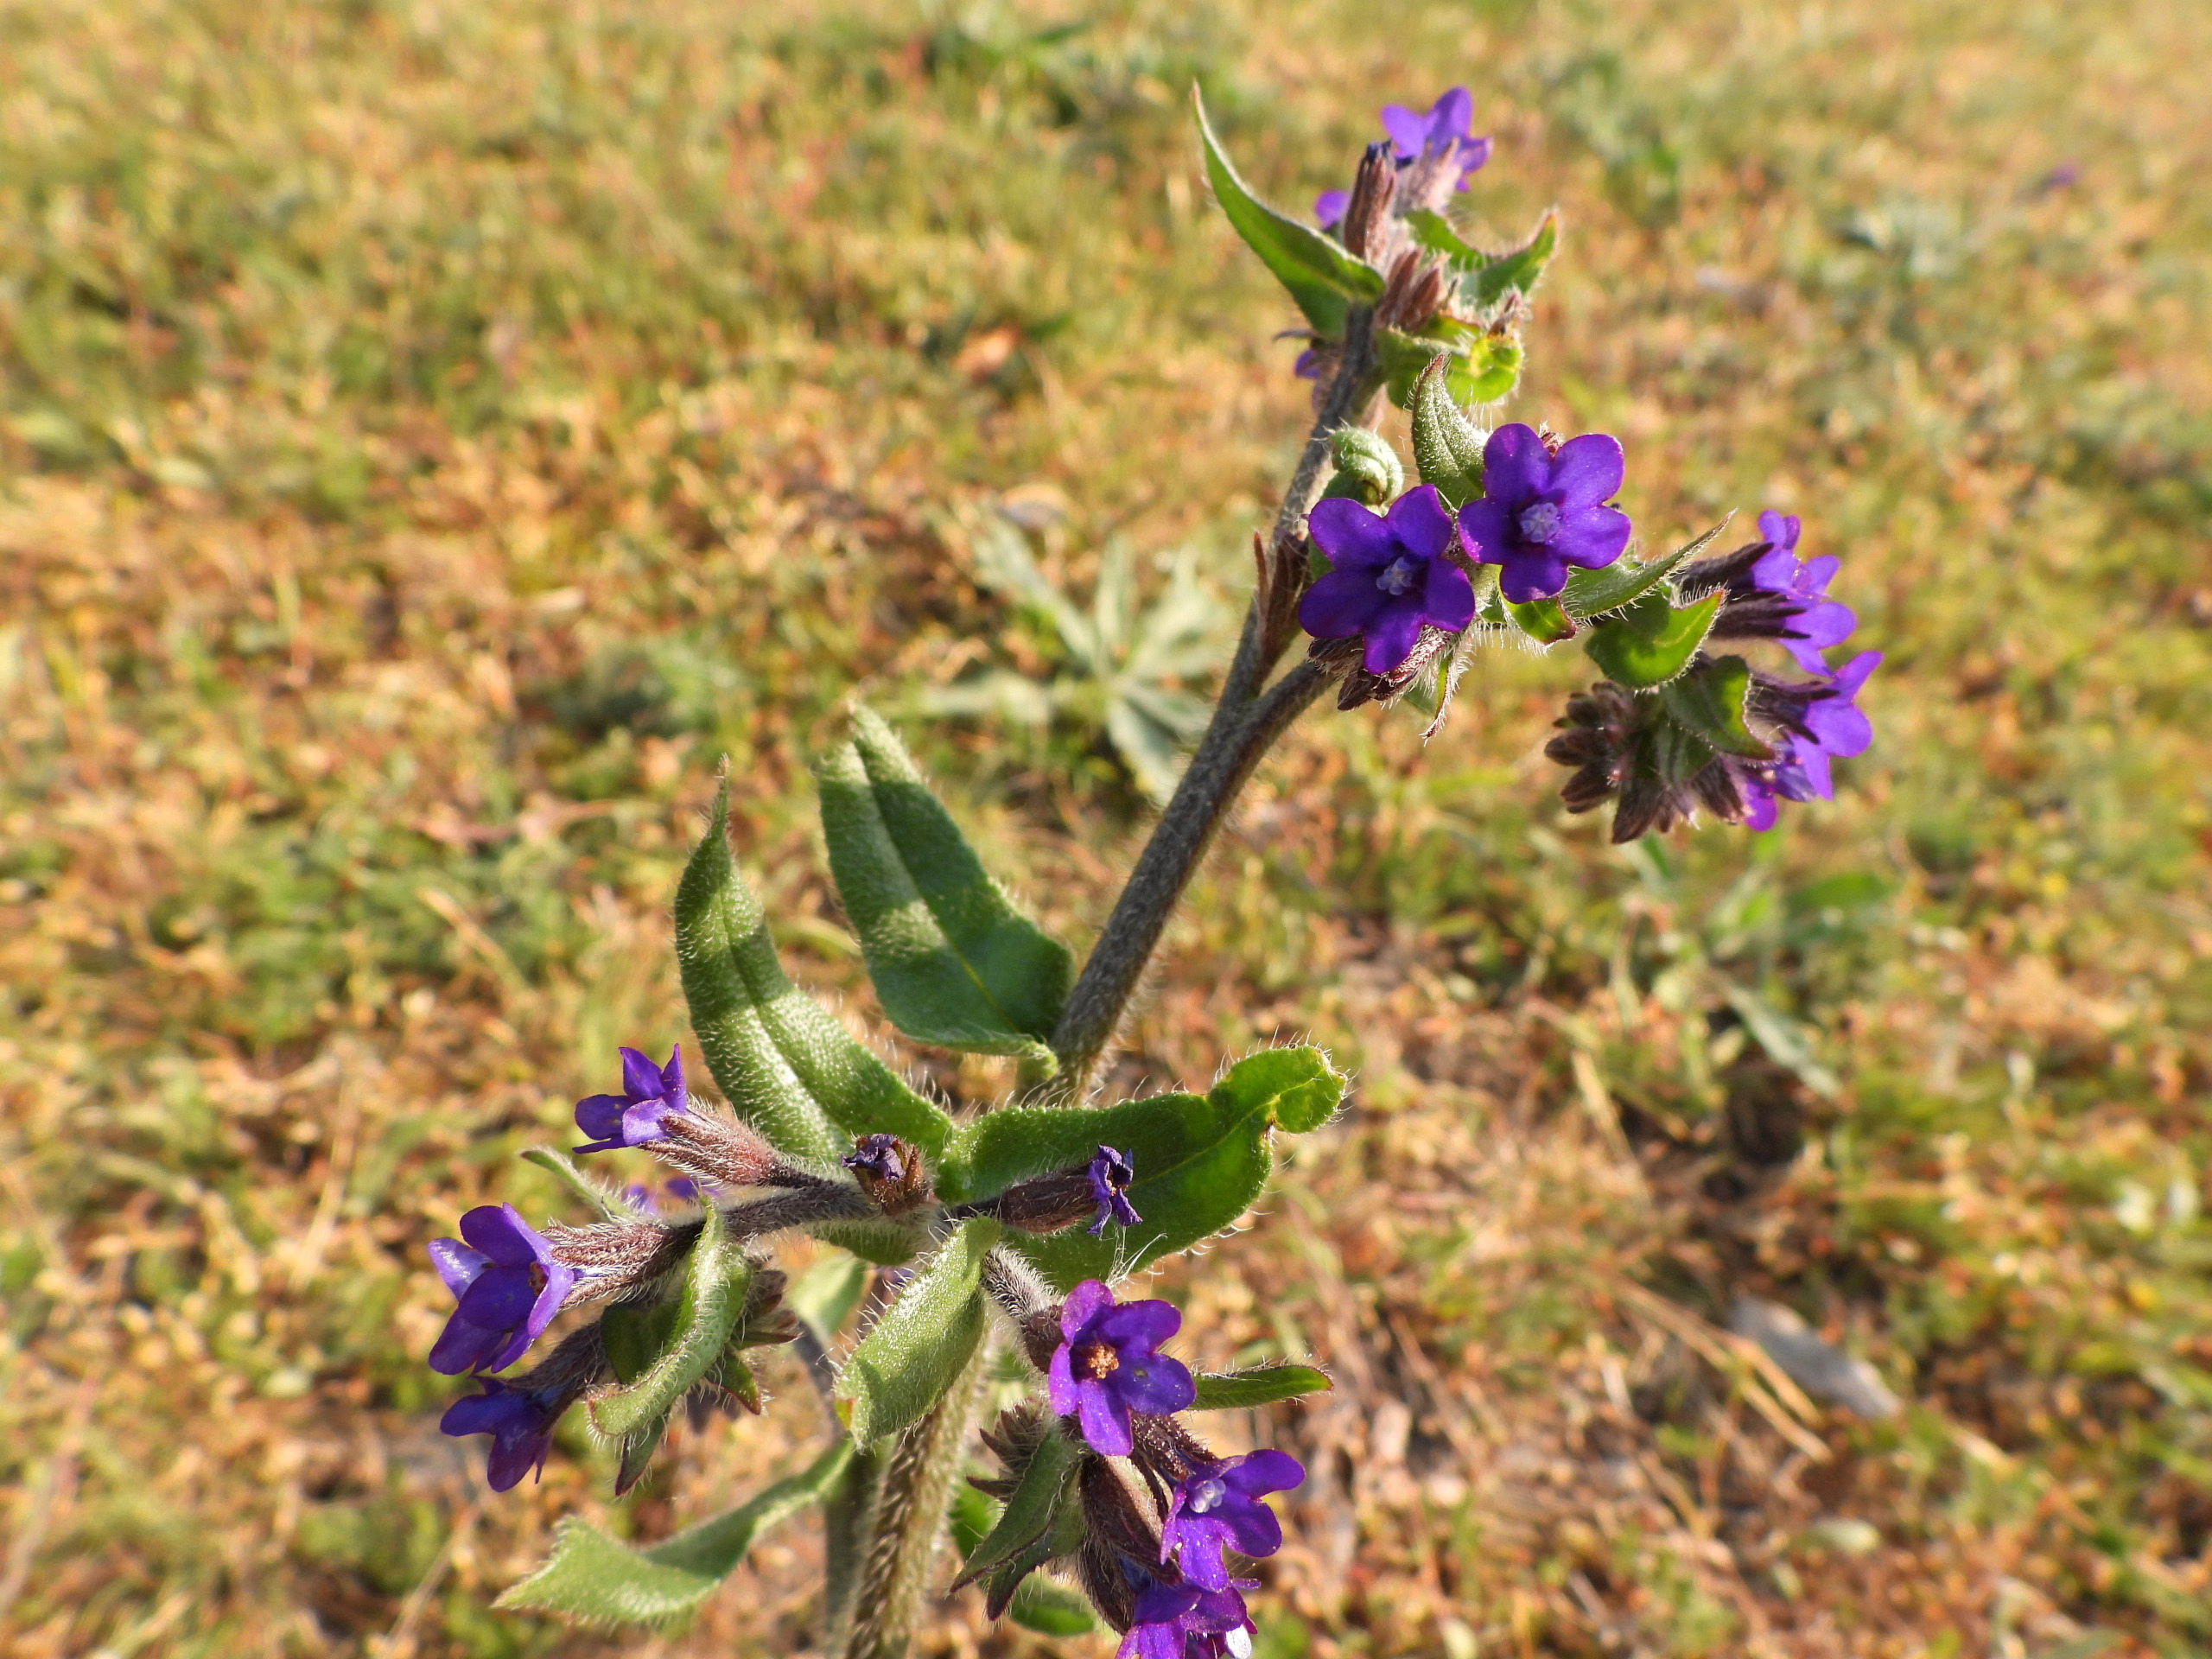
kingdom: Plantae
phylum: Tracheophyta
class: Magnoliopsida
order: Boraginales
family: Boraginaceae
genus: Anchusa
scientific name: Anchusa officinalis
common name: Læge-oksetunge
